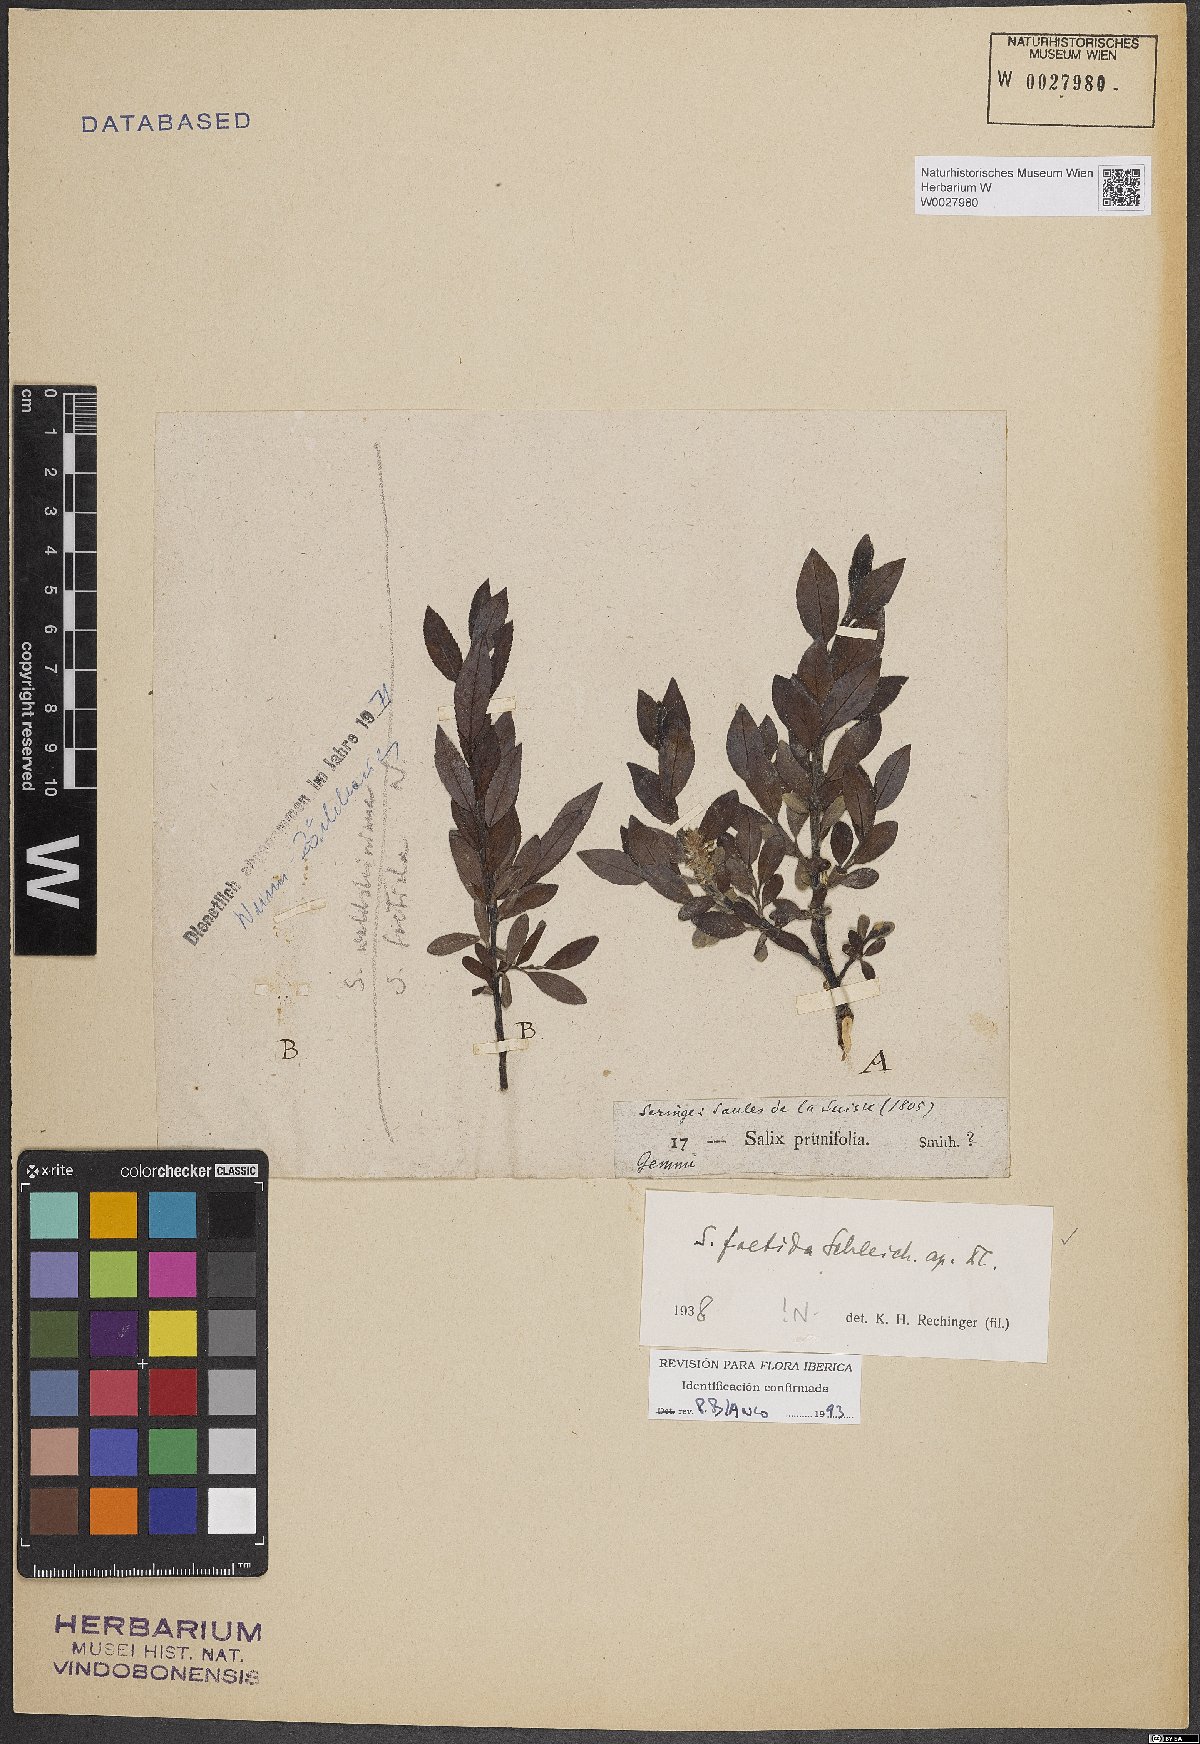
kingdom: Plantae
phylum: Tracheophyta
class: Magnoliopsida
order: Malpighiales
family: Salicaceae
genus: Salix
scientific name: Salix foetida
